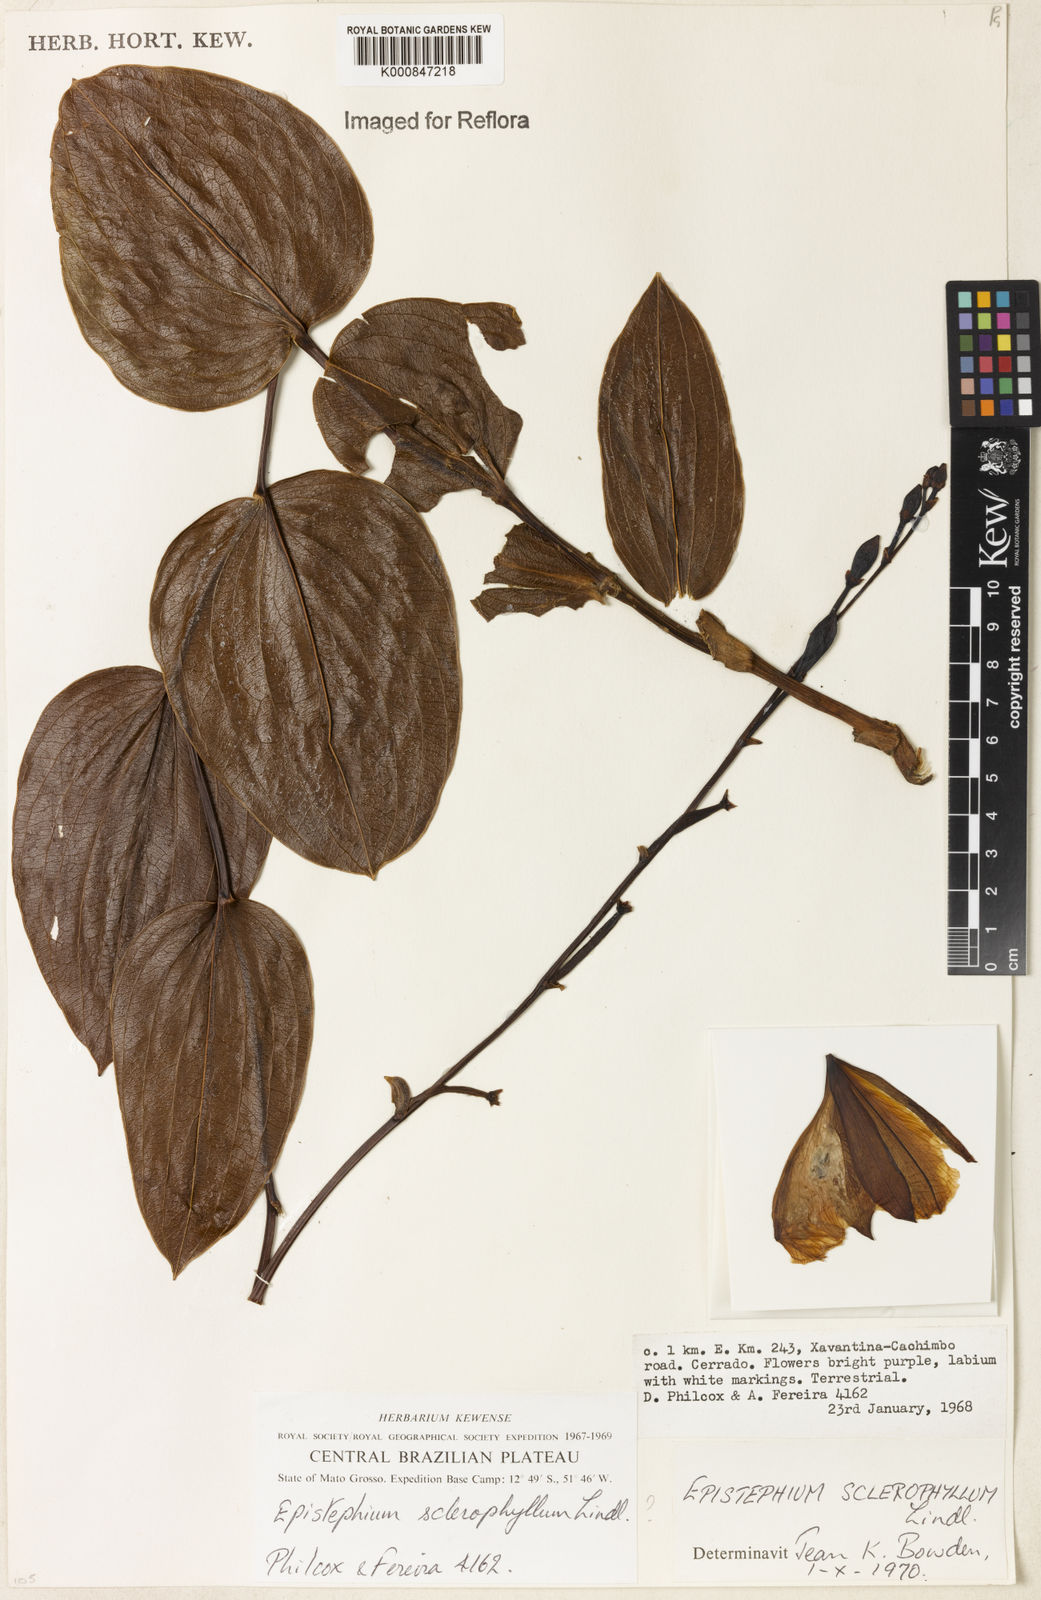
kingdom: Plantae
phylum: Tracheophyta
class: Liliopsida
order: Asparagales
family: Orchidaceae
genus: Epistephium
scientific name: Epistephium sclerophyllum
